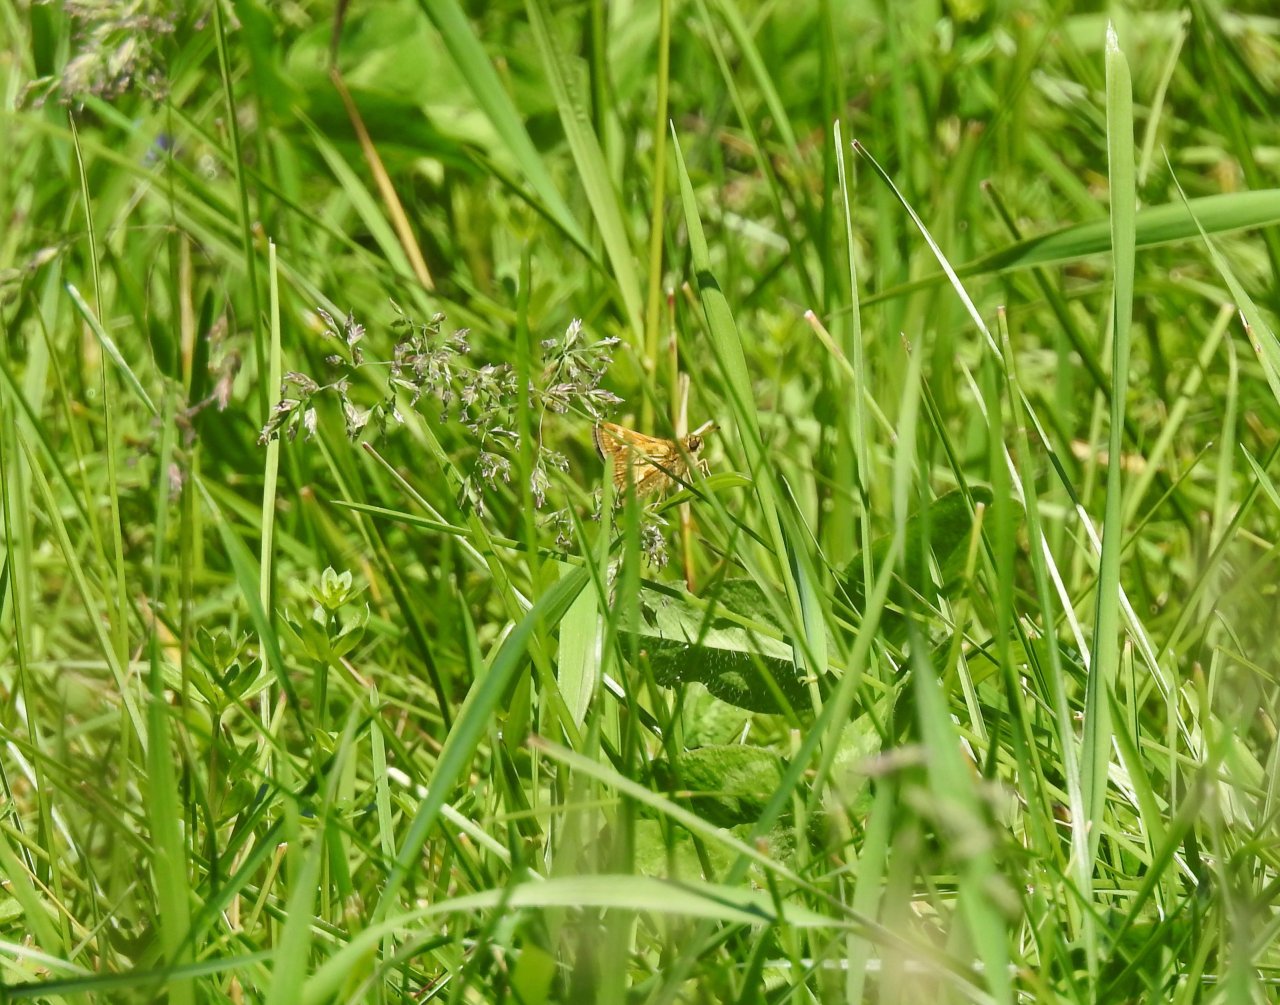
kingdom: Animalia
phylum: Arthropoda
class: Insecta
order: Lepidoptera
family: Hesperiidae
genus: Polites
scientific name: Polites coras
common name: Peck's Skipper
